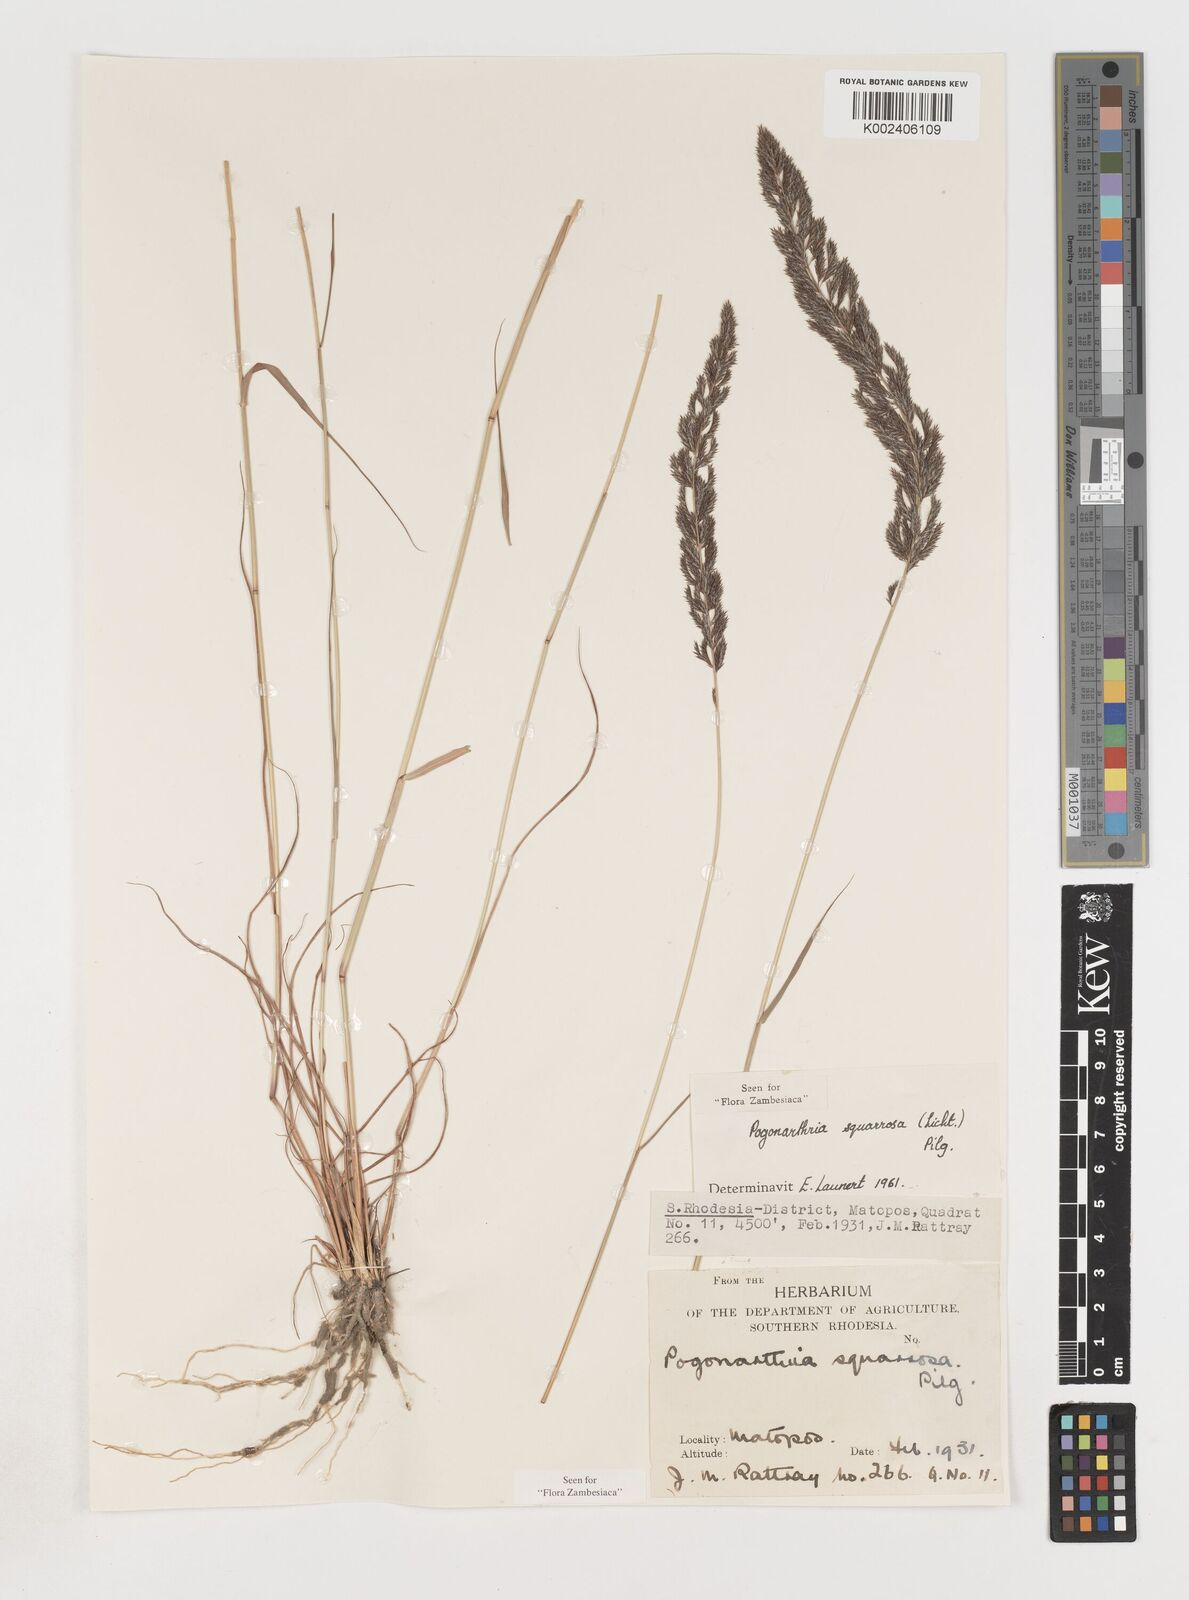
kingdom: Plantae
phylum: Tracheophyta
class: Liliopsida
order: Poales
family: Poaceae
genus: Pogonarthria
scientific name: Pogonarthria squarrosa
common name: Grass
